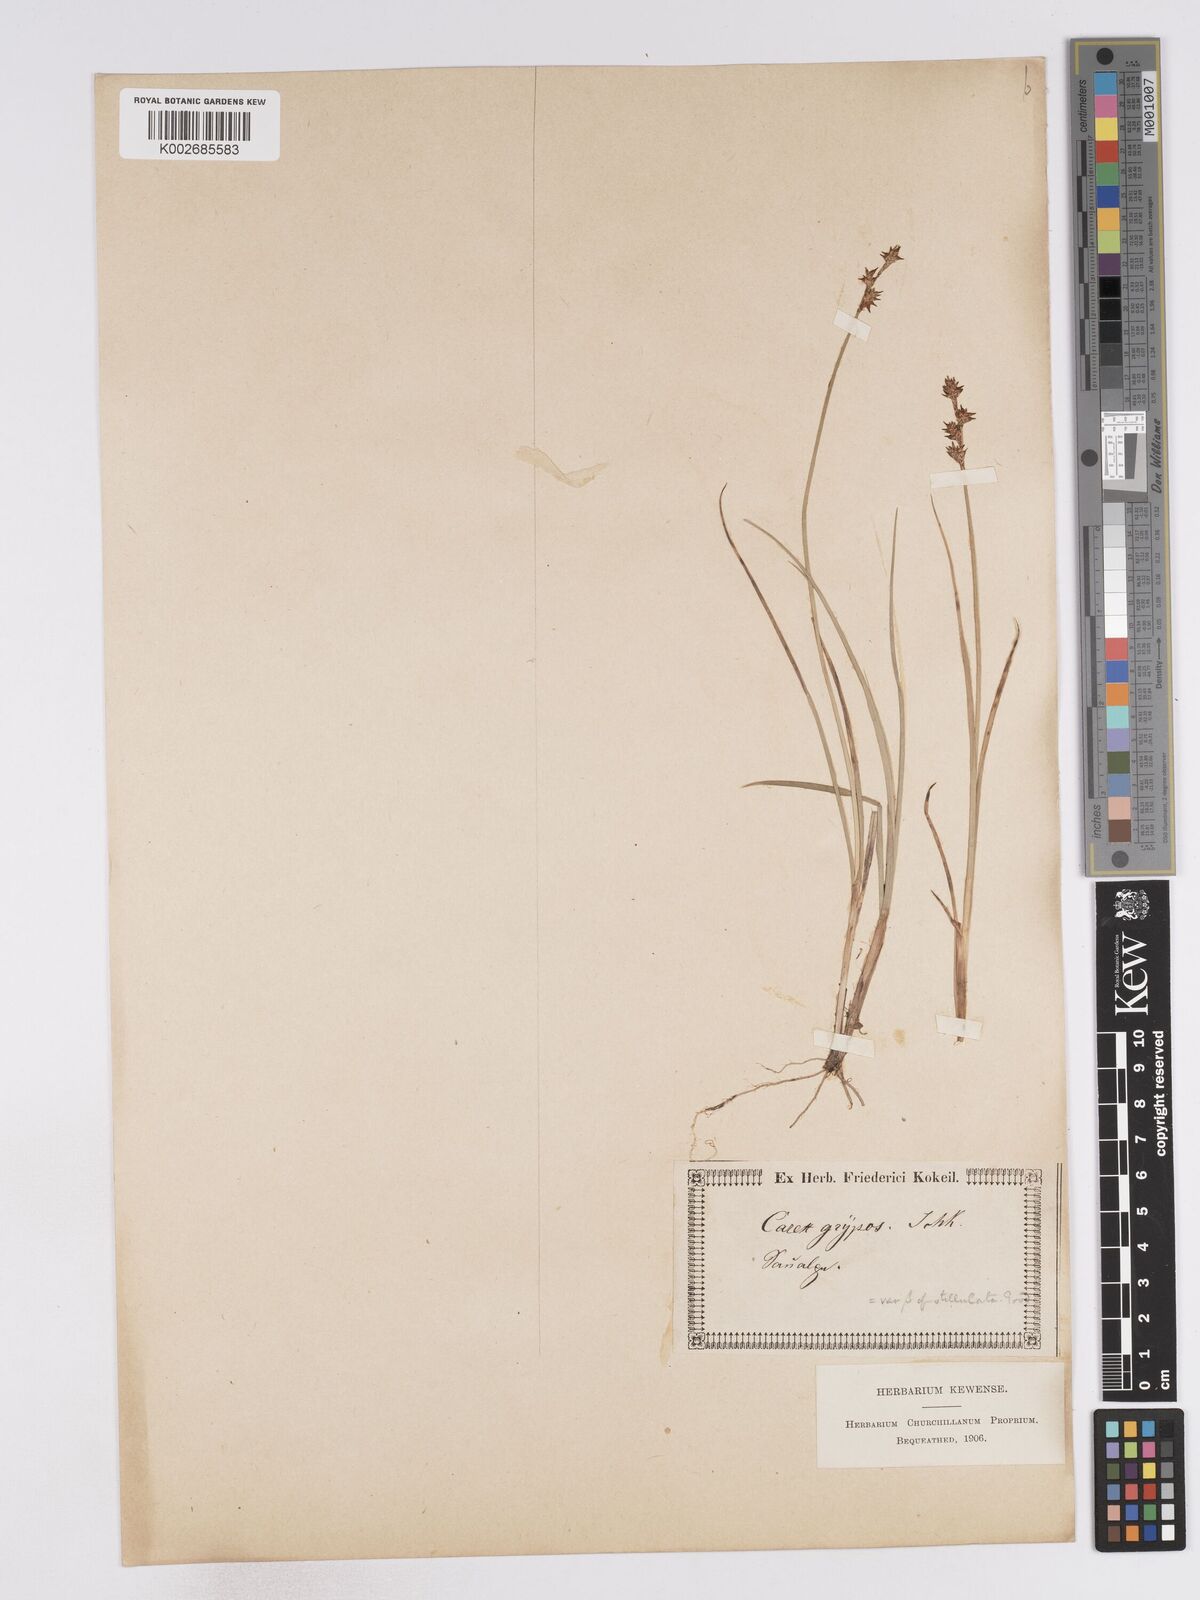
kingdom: Plantae
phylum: Tracheophyta
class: Liliopsida
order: Poales
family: Cyperaceae
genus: Carex
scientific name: Carex echinata
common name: Star sedge
